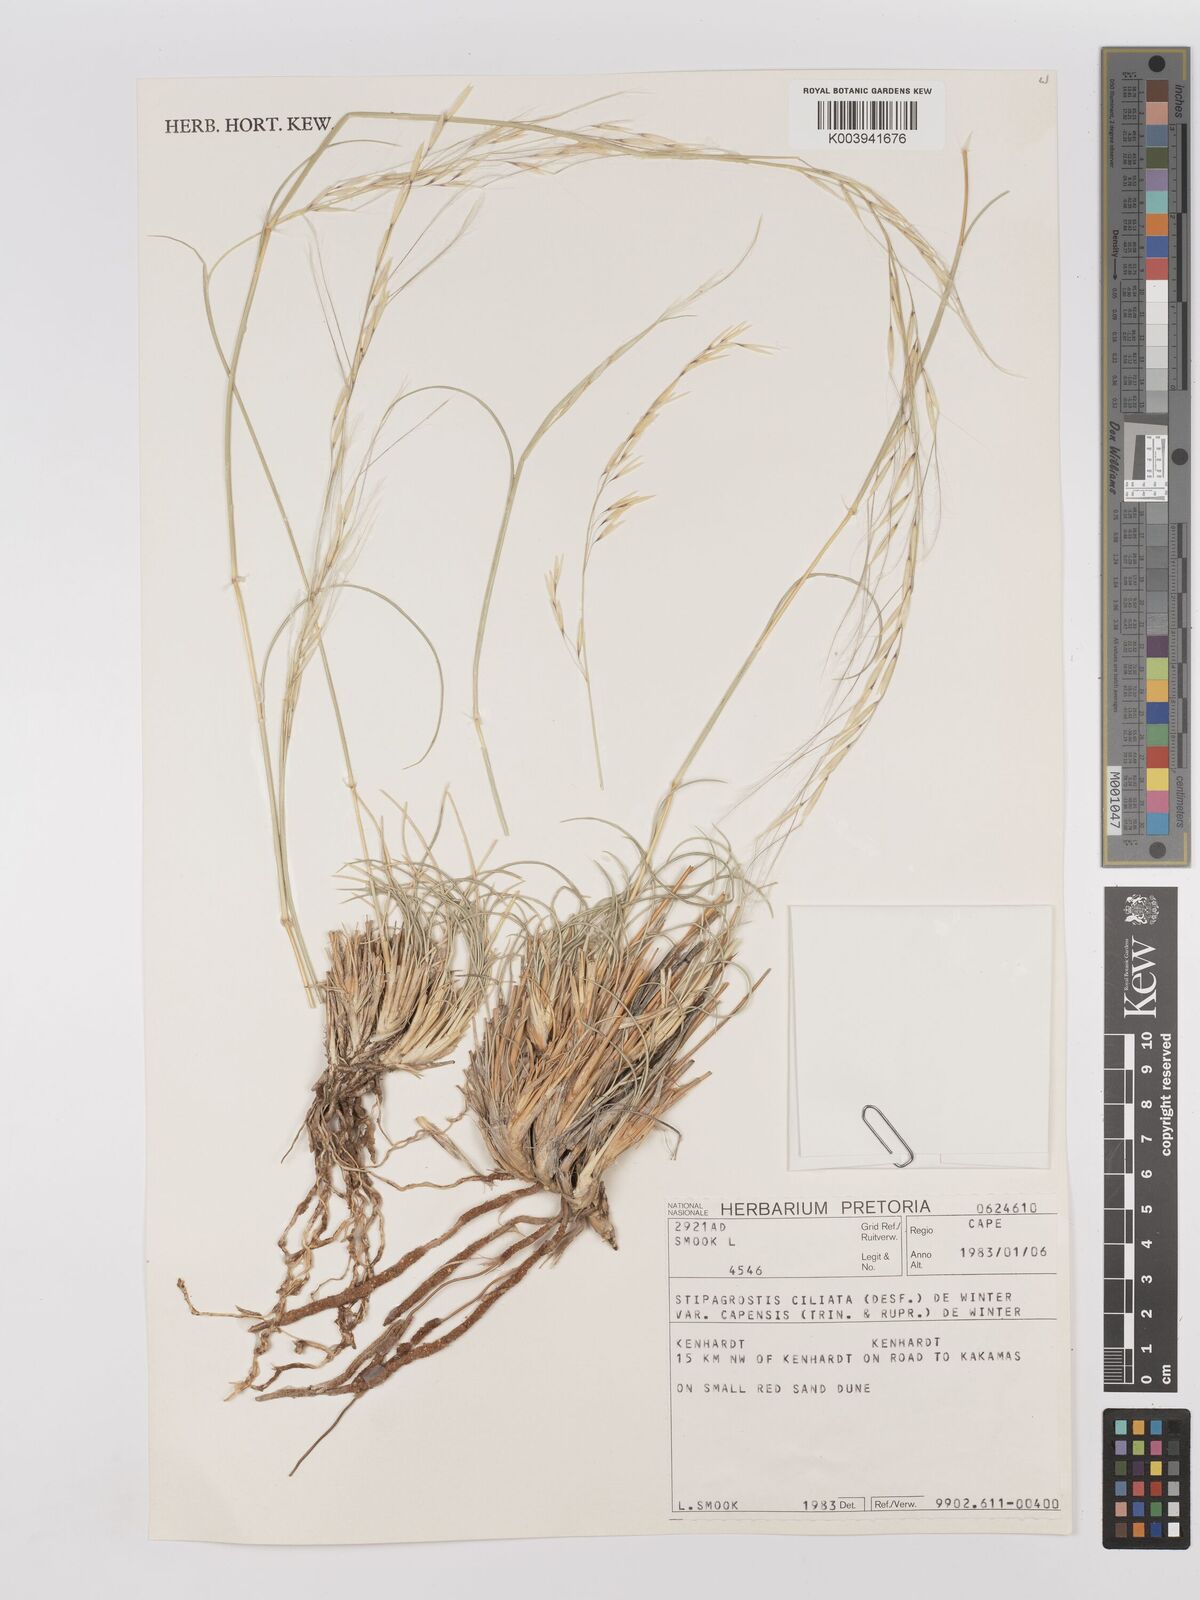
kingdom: Plantae
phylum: Tracheophyta
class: Liliopsida
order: Poales
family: Poaceae
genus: Stipagrostis
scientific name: Stipagrostis ciliata
